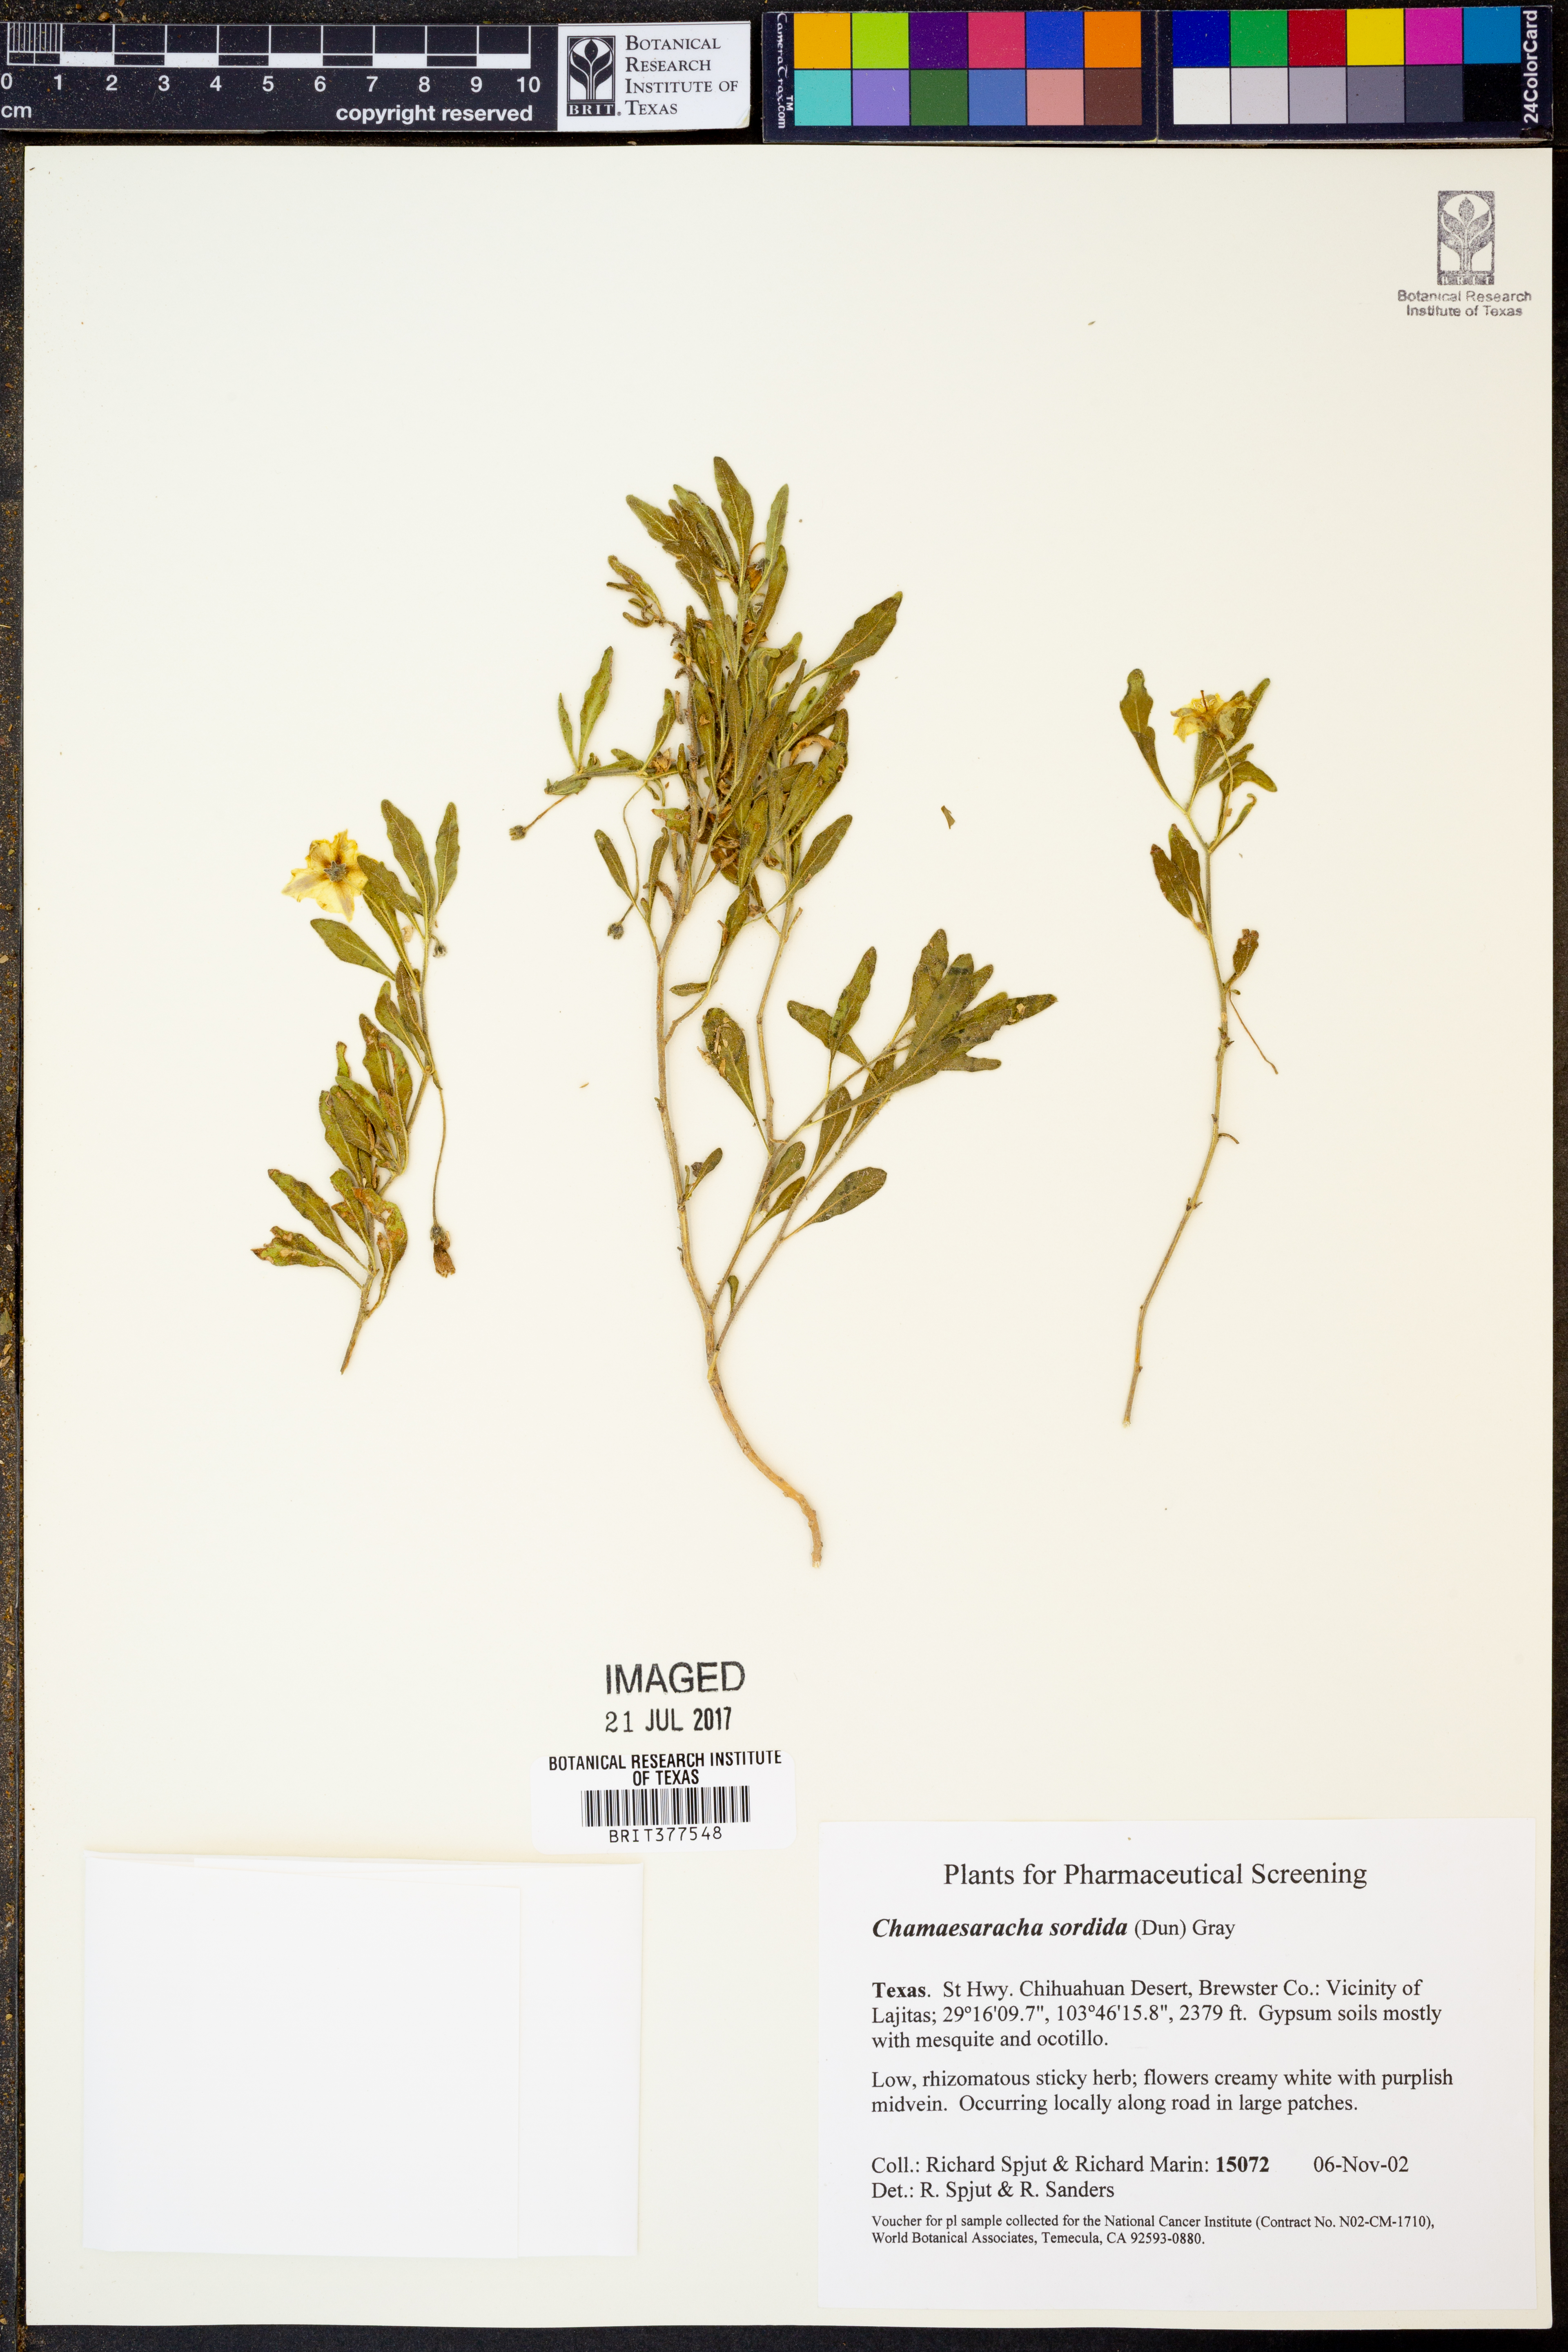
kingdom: Plantae
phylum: Tracheophyta
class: Magnoliopsida
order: Solanales
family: Solanaceae
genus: Chamaesaracha
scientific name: Chamaesaracha sordida
